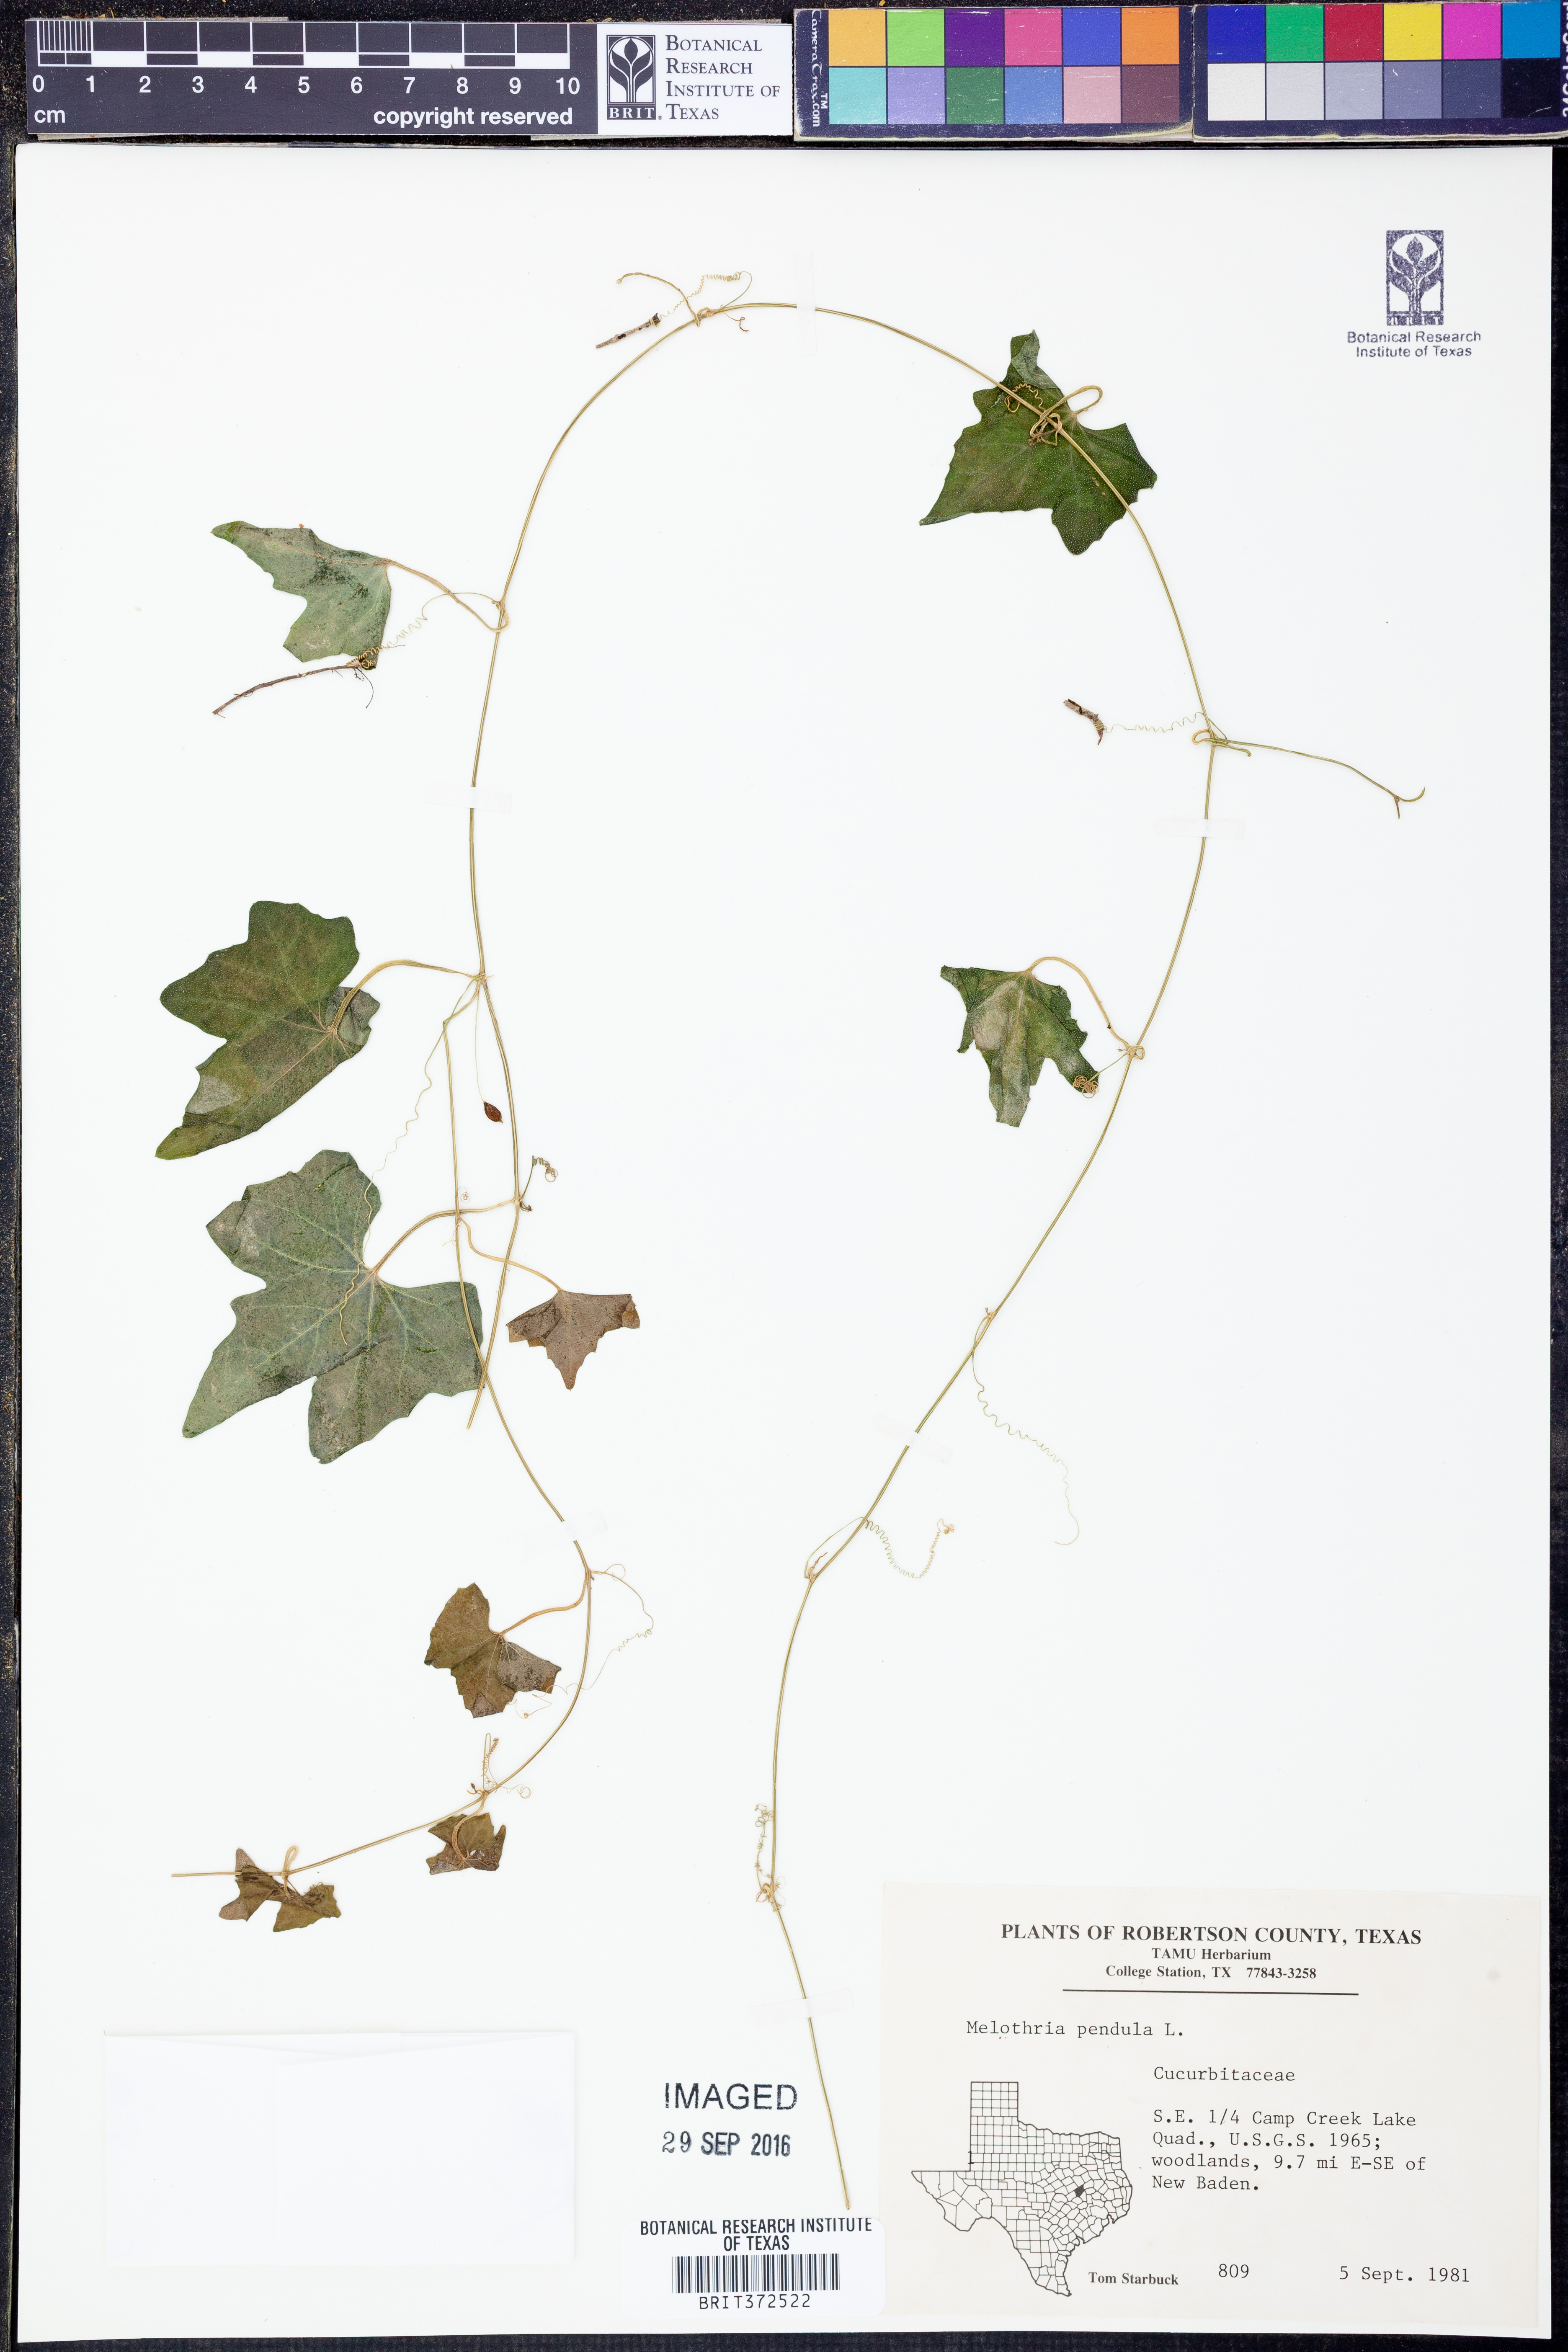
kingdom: Plantae
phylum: Tracheophyta
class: Magnoliopsida
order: Cucurbitales
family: Cucurbitaceae
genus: Melothria
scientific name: Melothria pendula
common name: Creeping-cucumber
